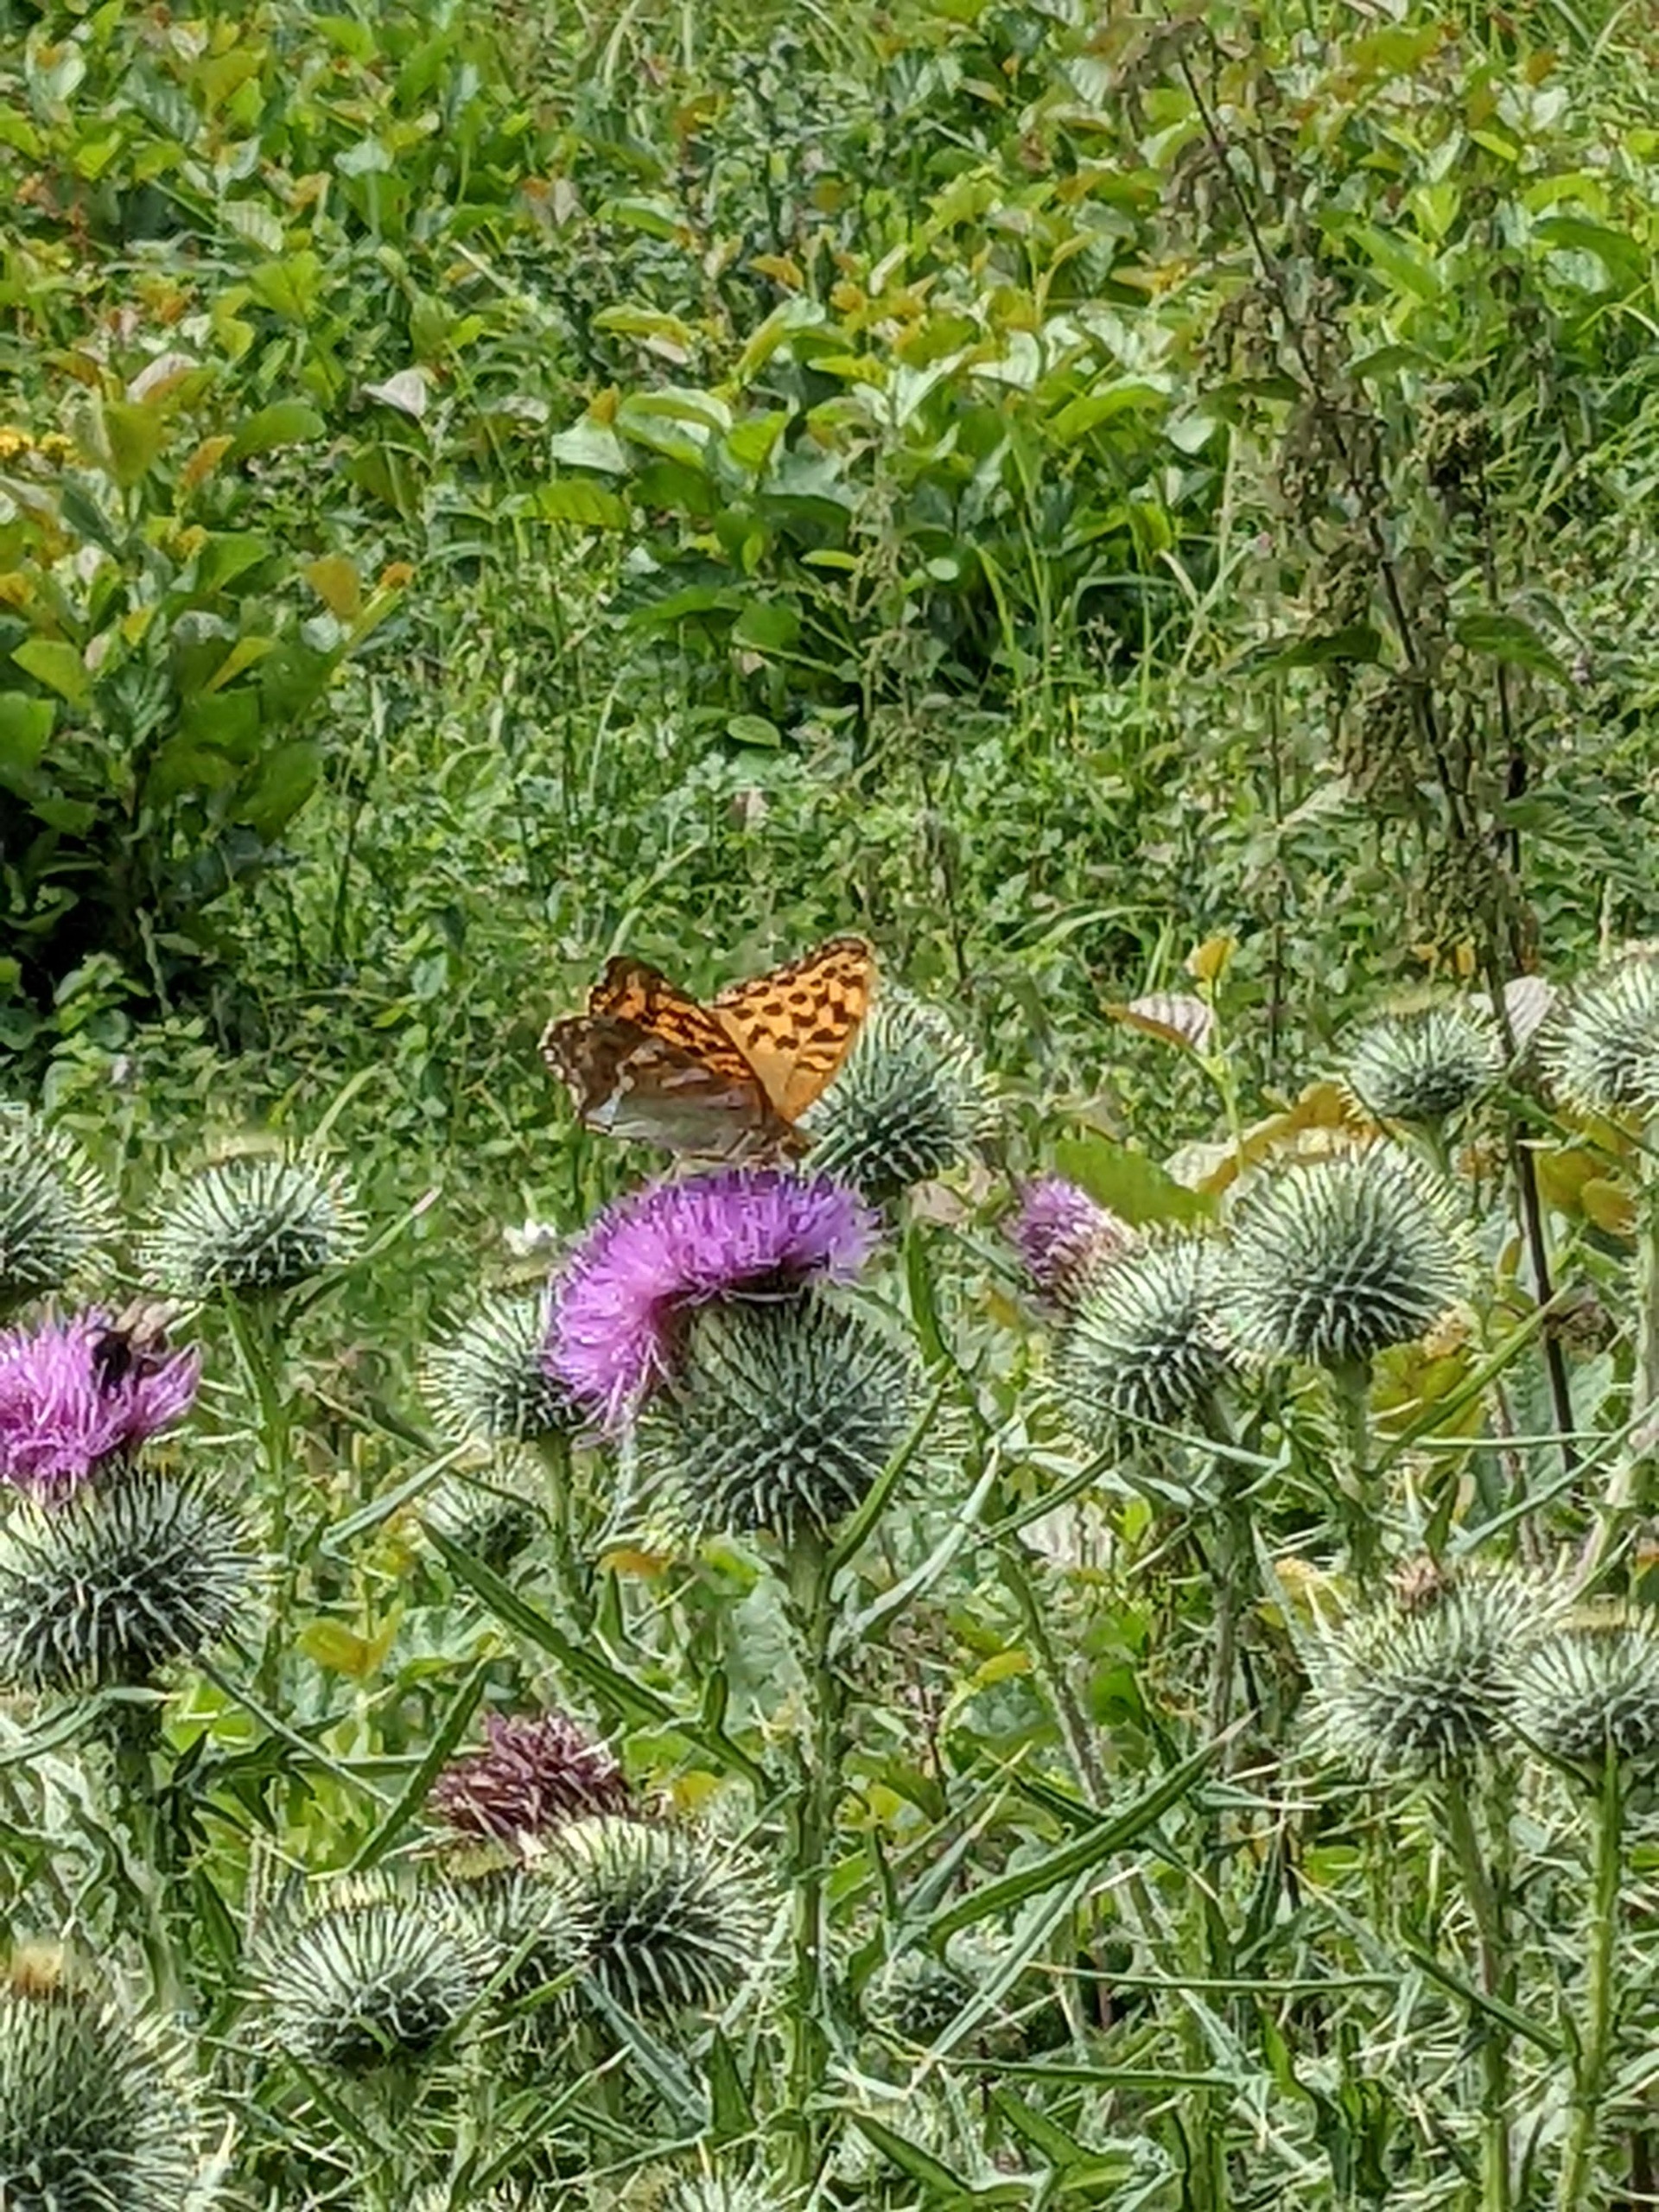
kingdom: Animalia
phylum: Arthropoda
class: Insecta
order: Lepidoptera
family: Nymphalidae
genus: Argynnis
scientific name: Argynnis paphia
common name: Kejserkåbe
